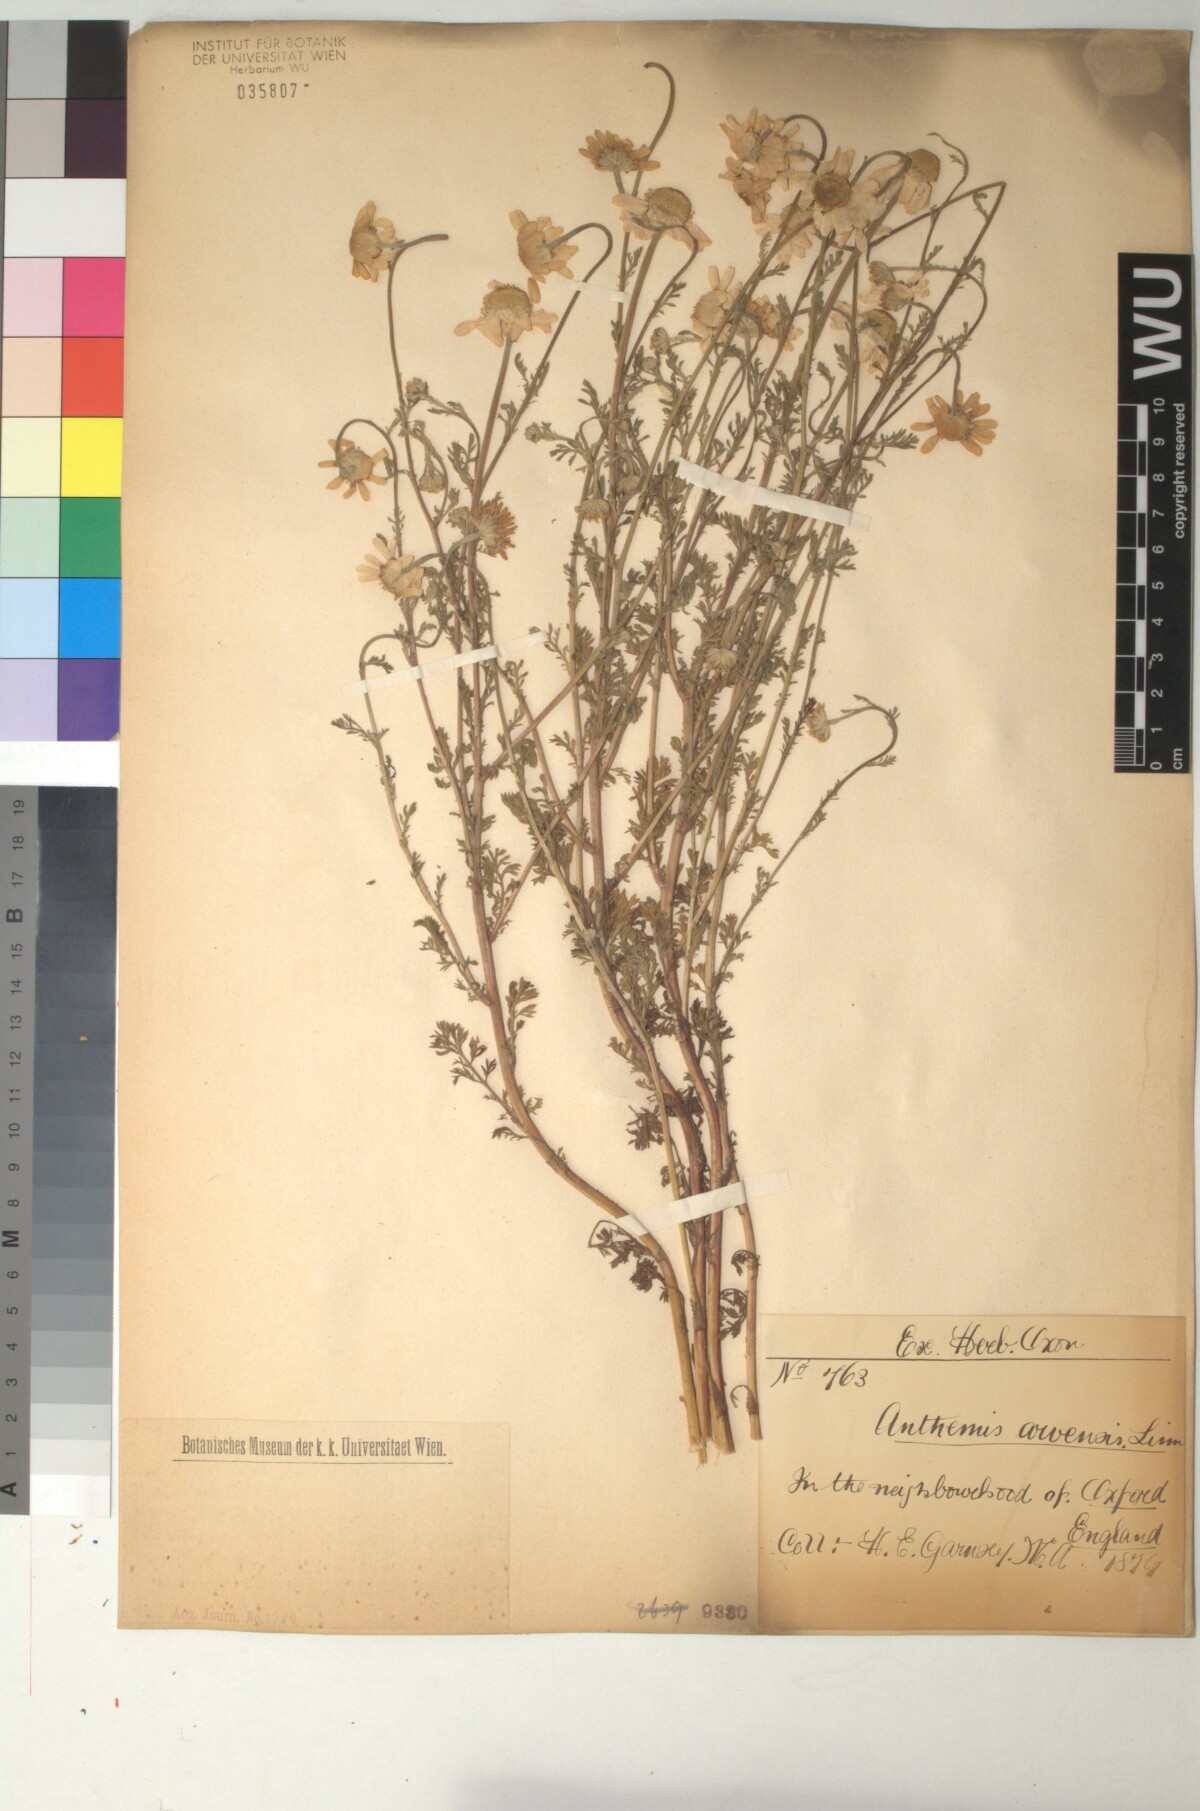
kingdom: Plantae
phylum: Tracheophyta
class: Magnoliopsida
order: Asterales
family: Asteraceae
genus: Anthemis
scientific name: Anthemis arvensis
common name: Corn chamomile
